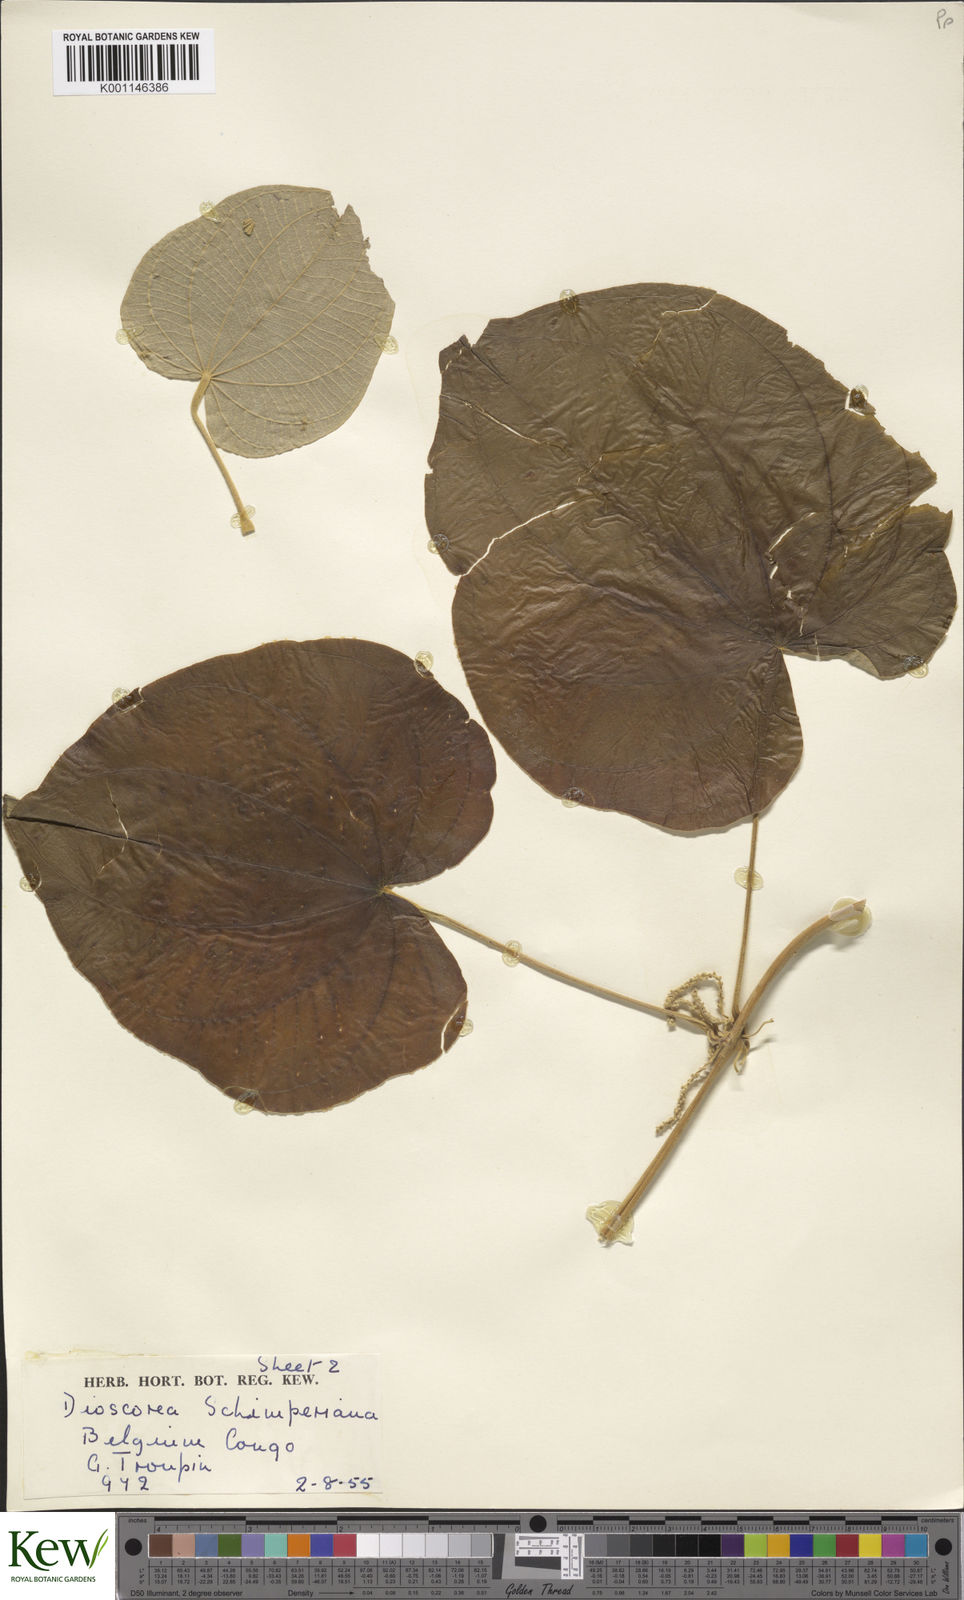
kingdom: Plantae
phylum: Tracheophyta
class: Liliopsida
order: Dioscoreales
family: Dioscoreaceae
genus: Dioscorea
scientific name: Dioscorea schimperiana
